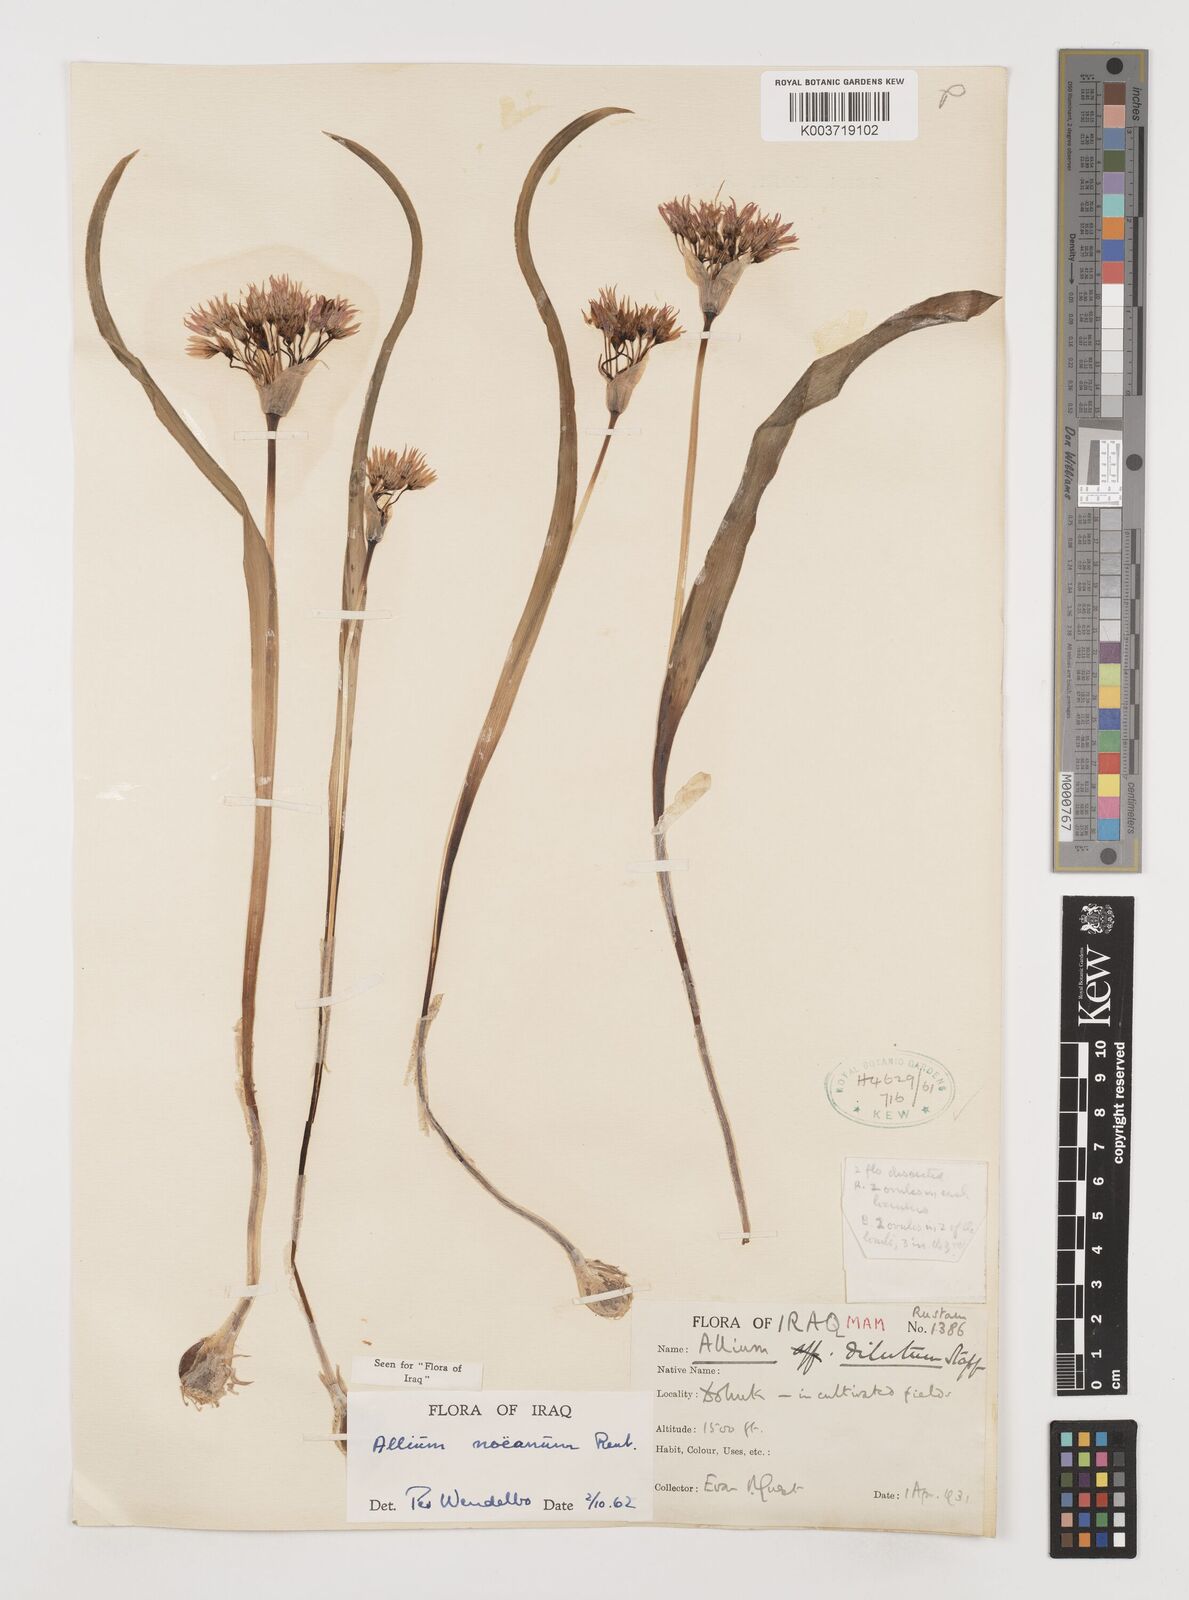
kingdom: Plantae
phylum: Tracheophyta
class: Liliopsida
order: Asparagales
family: Amaryllidaceae
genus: Allium
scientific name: Allium noeanum
